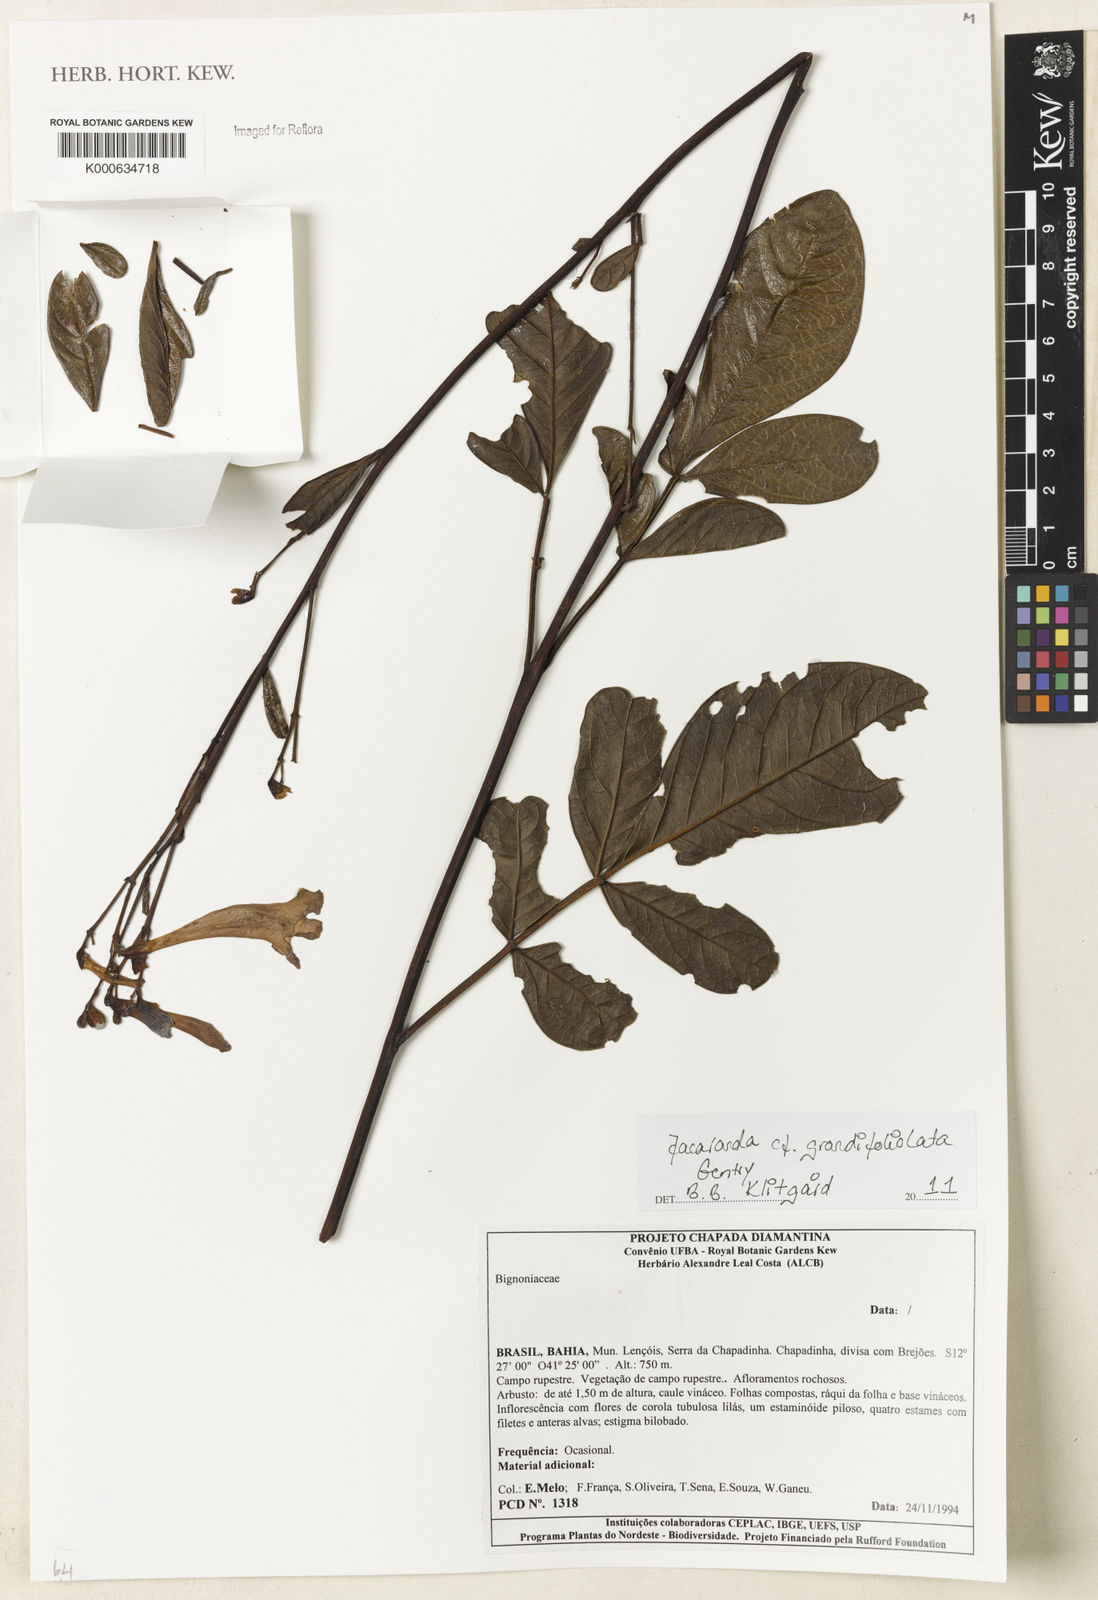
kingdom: Plantae
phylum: Tracheophyta
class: Magnoliopsida
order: Lamiales
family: Bignoniaceae
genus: Jacaranda
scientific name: Jacaranda grandifoliolata
